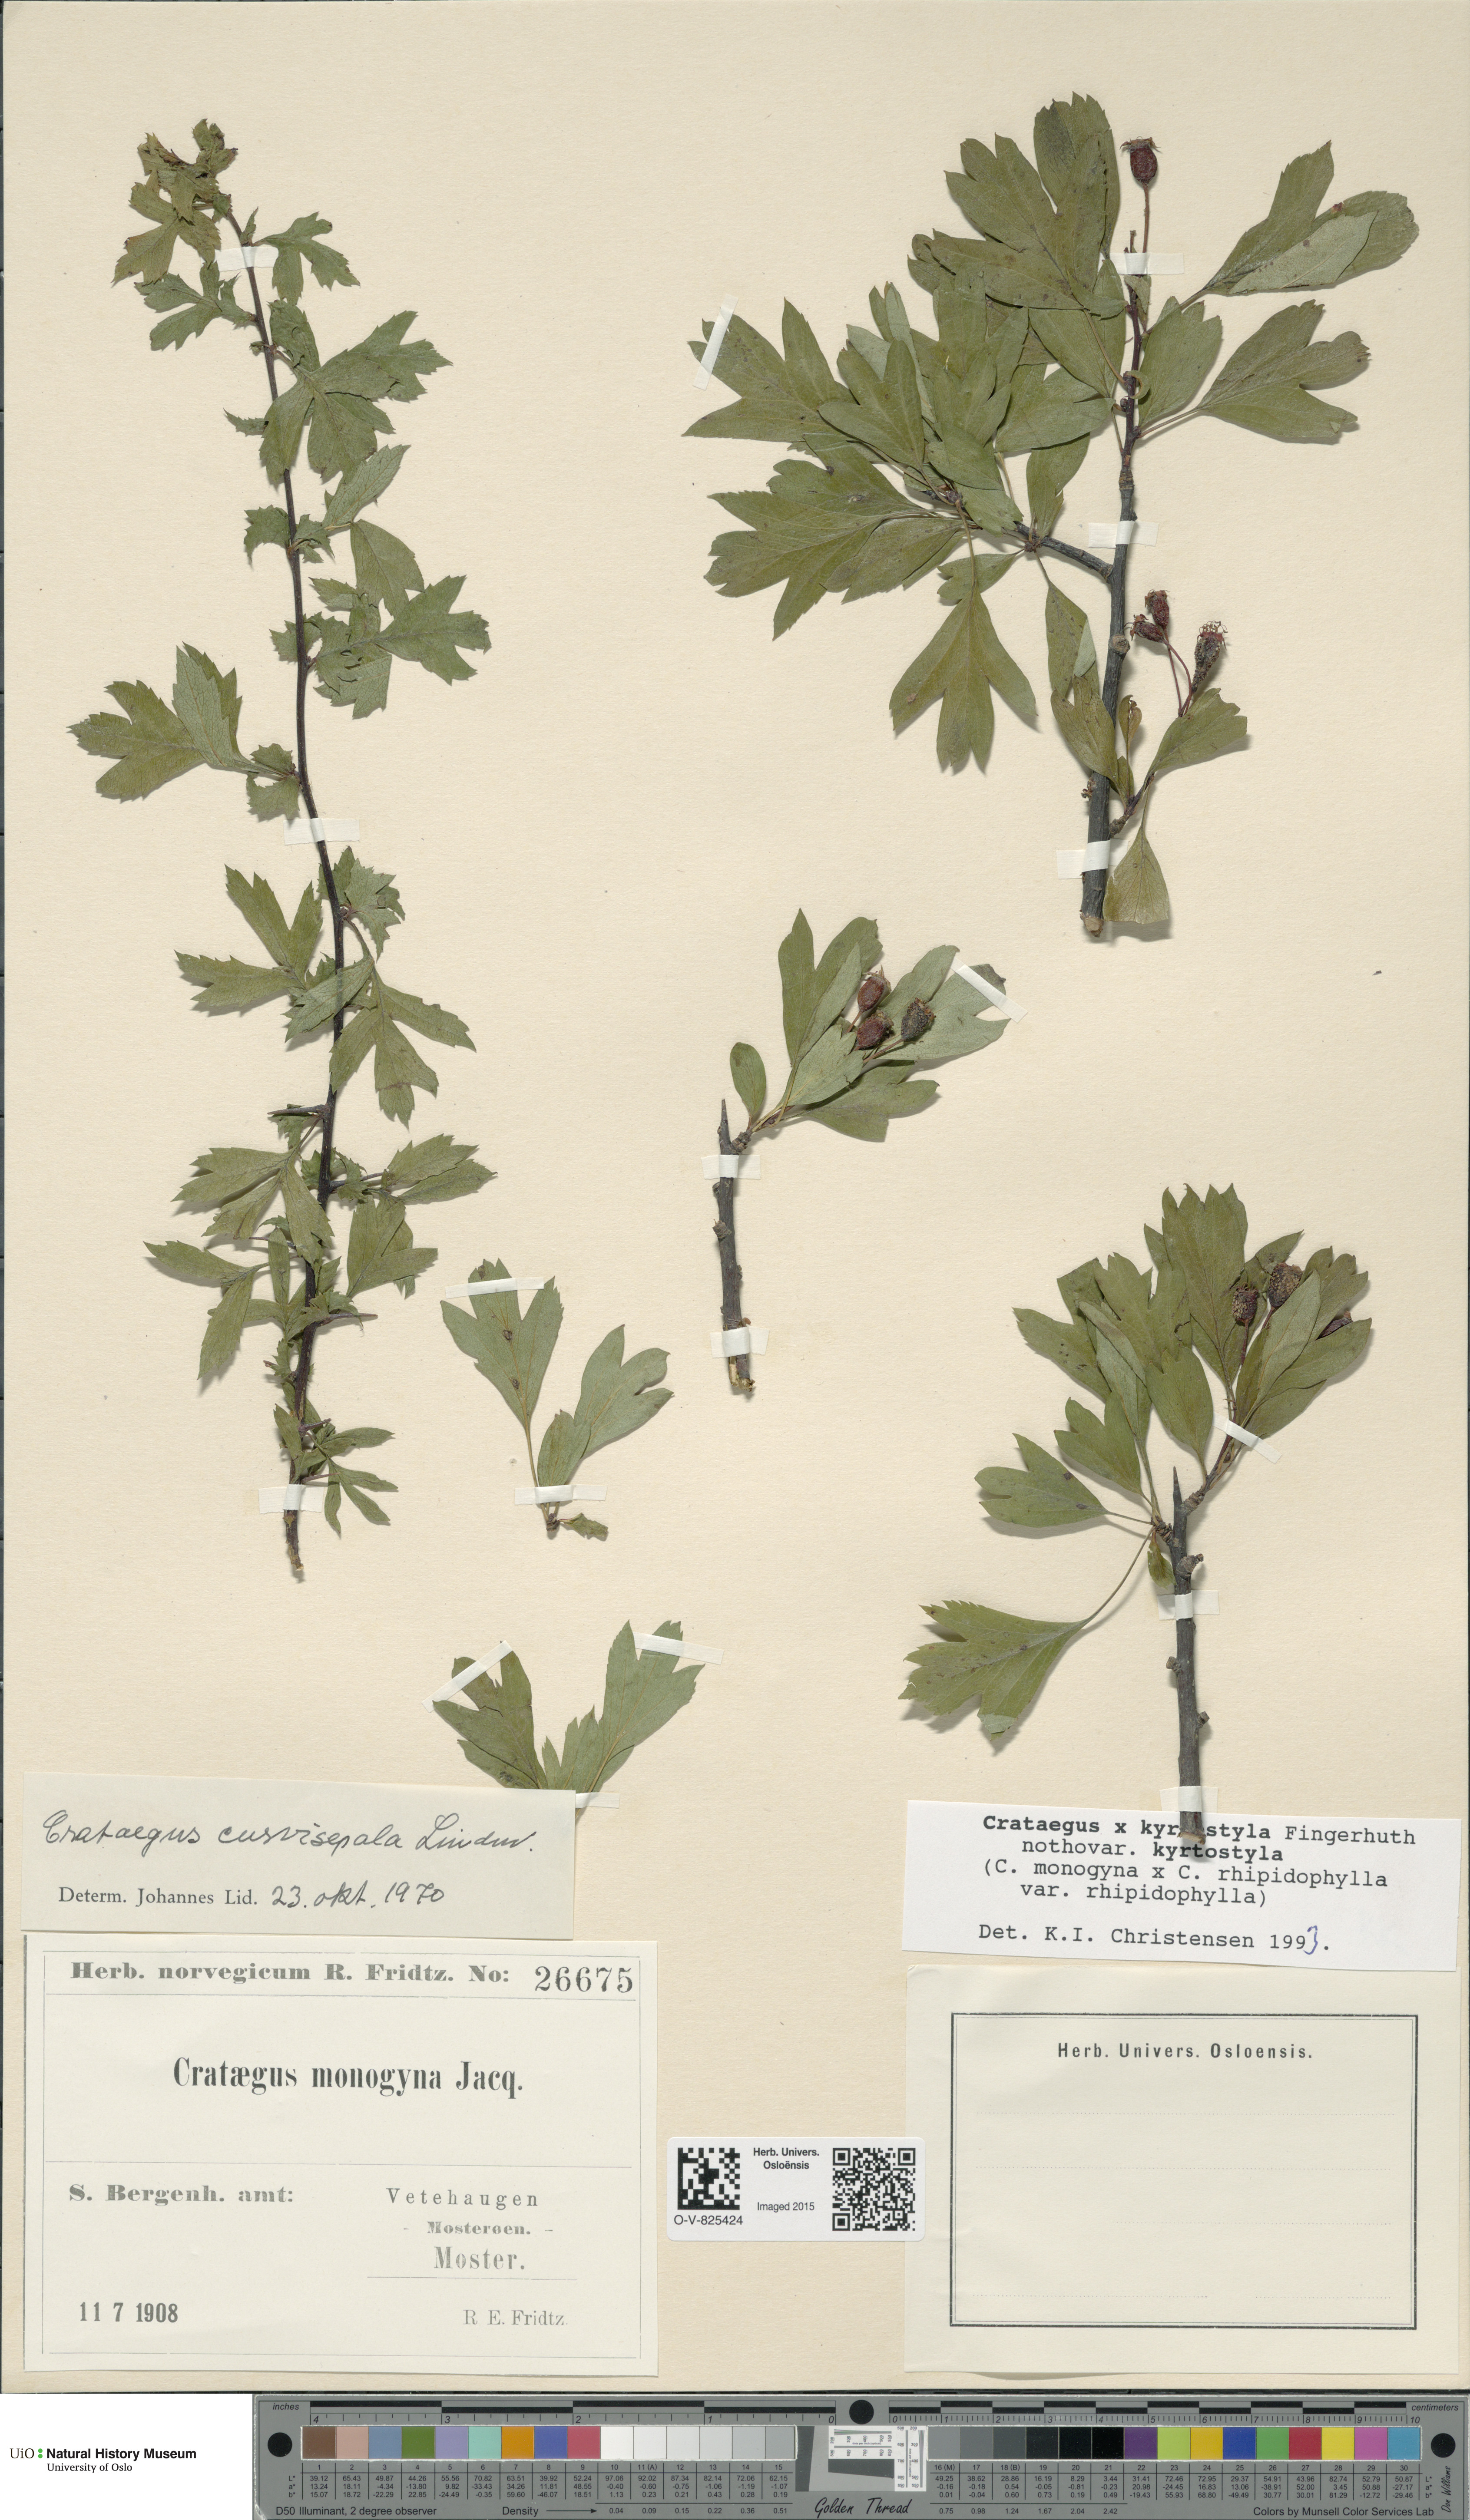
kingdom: Plantae
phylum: Tracheophyta
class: Magnoliopsida
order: Rosales
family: Rosaceae
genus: Crataegus
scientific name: Crataegus kyrtostyla
